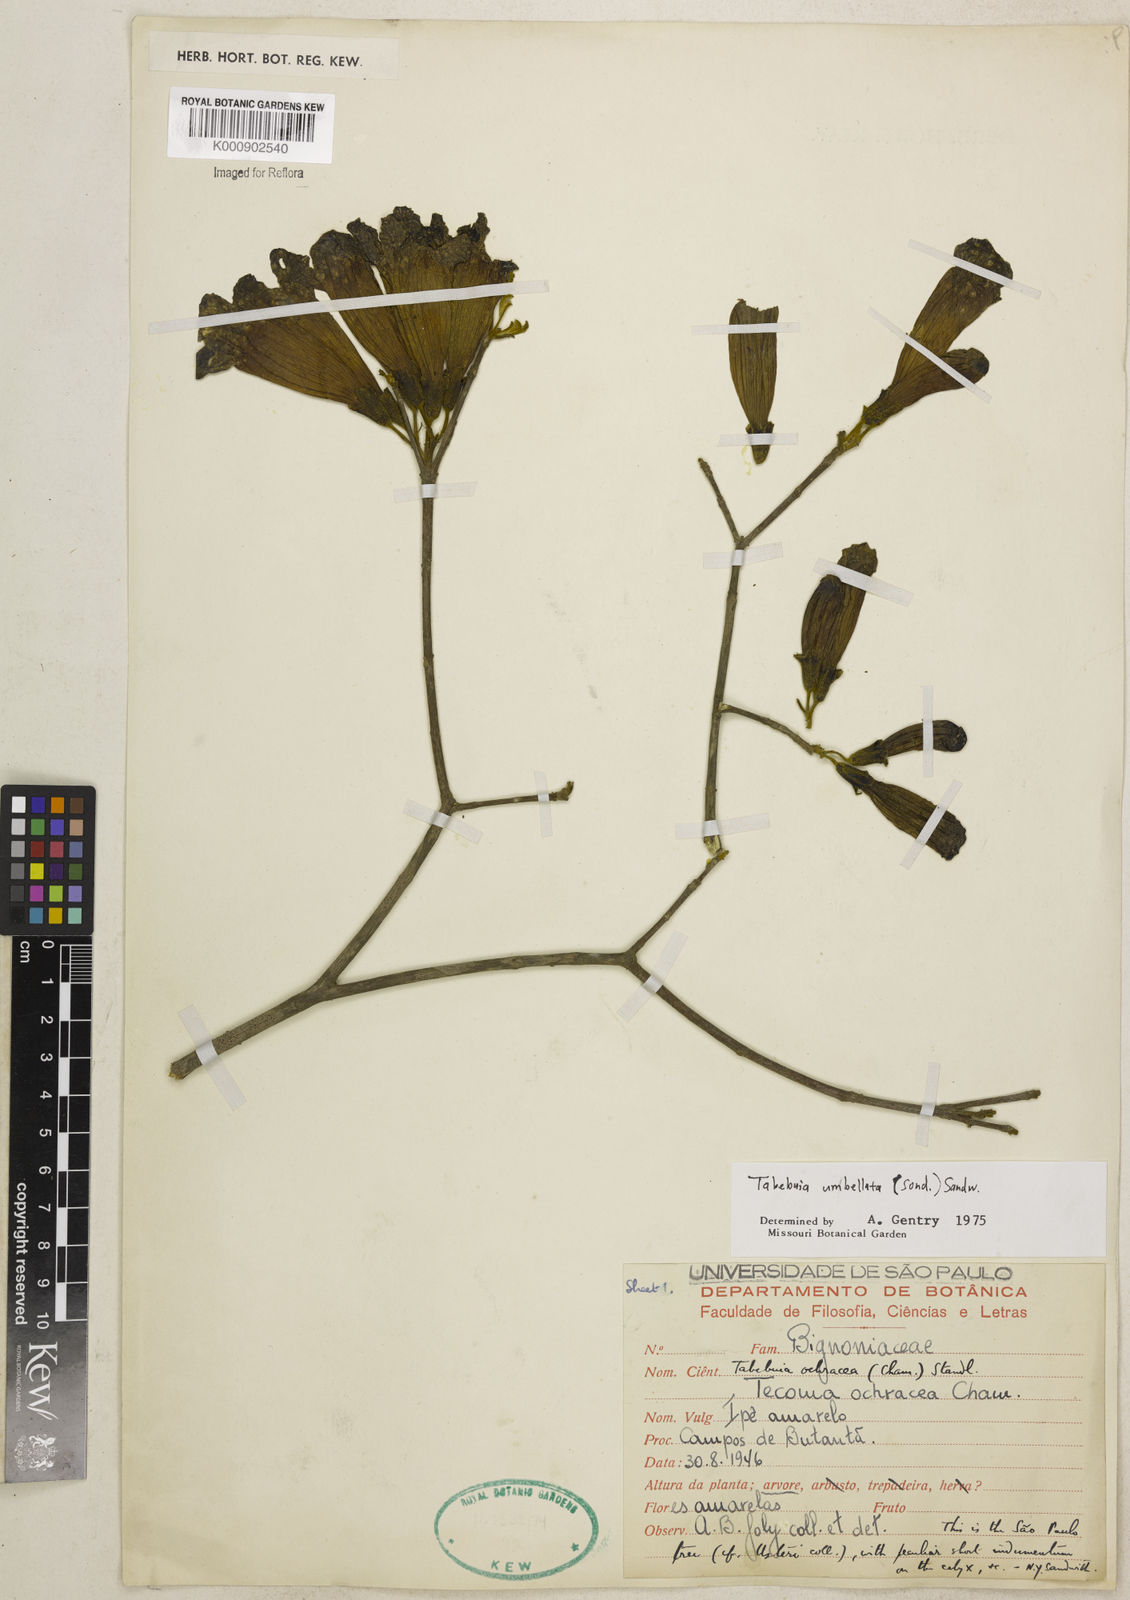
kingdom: Plantae
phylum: Tracheophyta
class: Magnoliopsida
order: Lamiales
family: Bignoniaceae
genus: Handroanthus
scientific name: Handroanthus umbellatus
